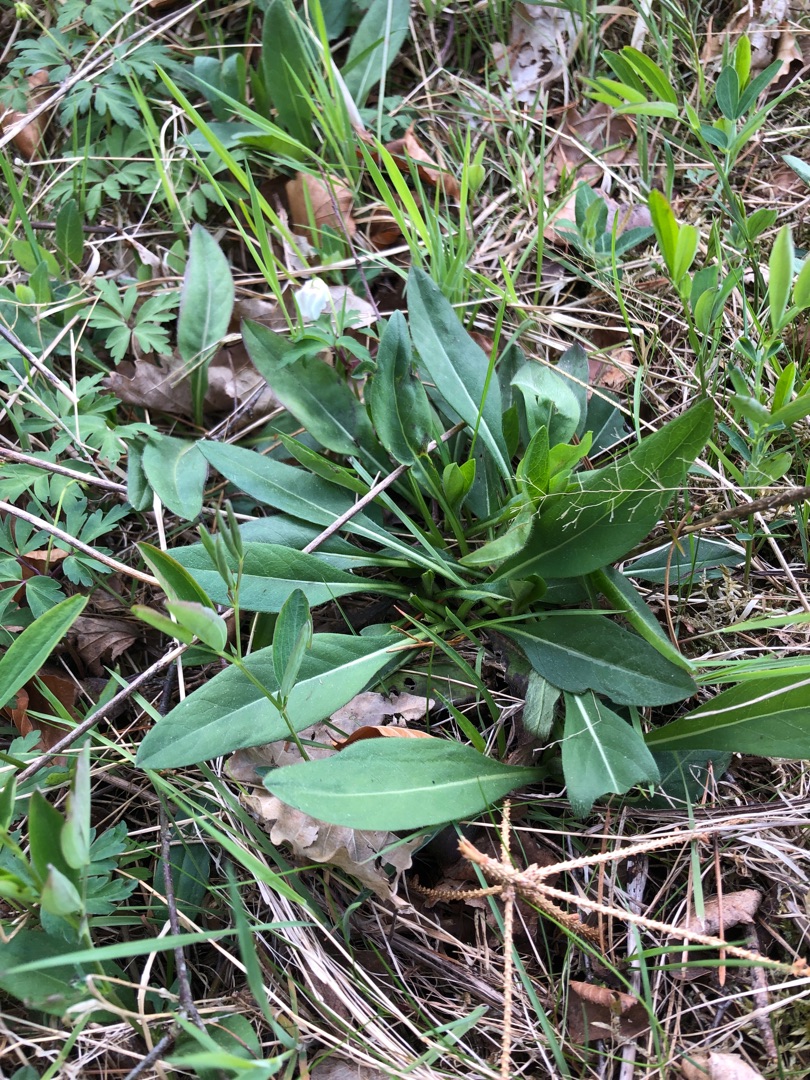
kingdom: Plantae
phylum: Tracheophyta
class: Magnoliopsida
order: Dipsacales
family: Caprifoliaceae
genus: Succisa
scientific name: Succisa pratensis
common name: Djævelsbid
